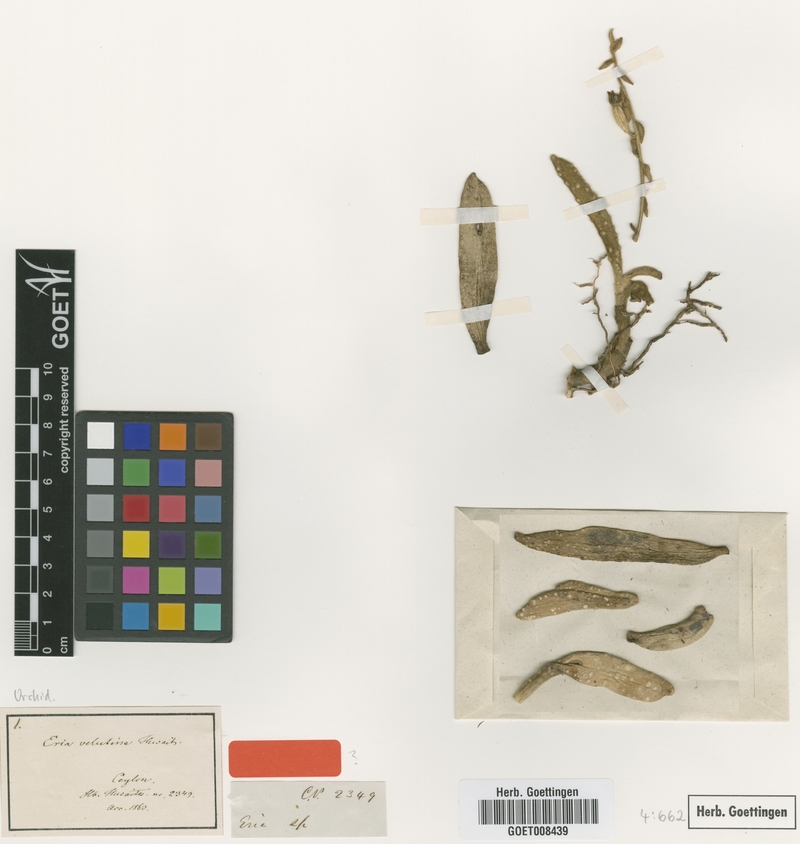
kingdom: Plantae
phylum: Tracheophyta
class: Liliopsida
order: Asparagales
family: Orchidaceae
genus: Trichotosia
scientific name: Trichotosia thwaitesii
